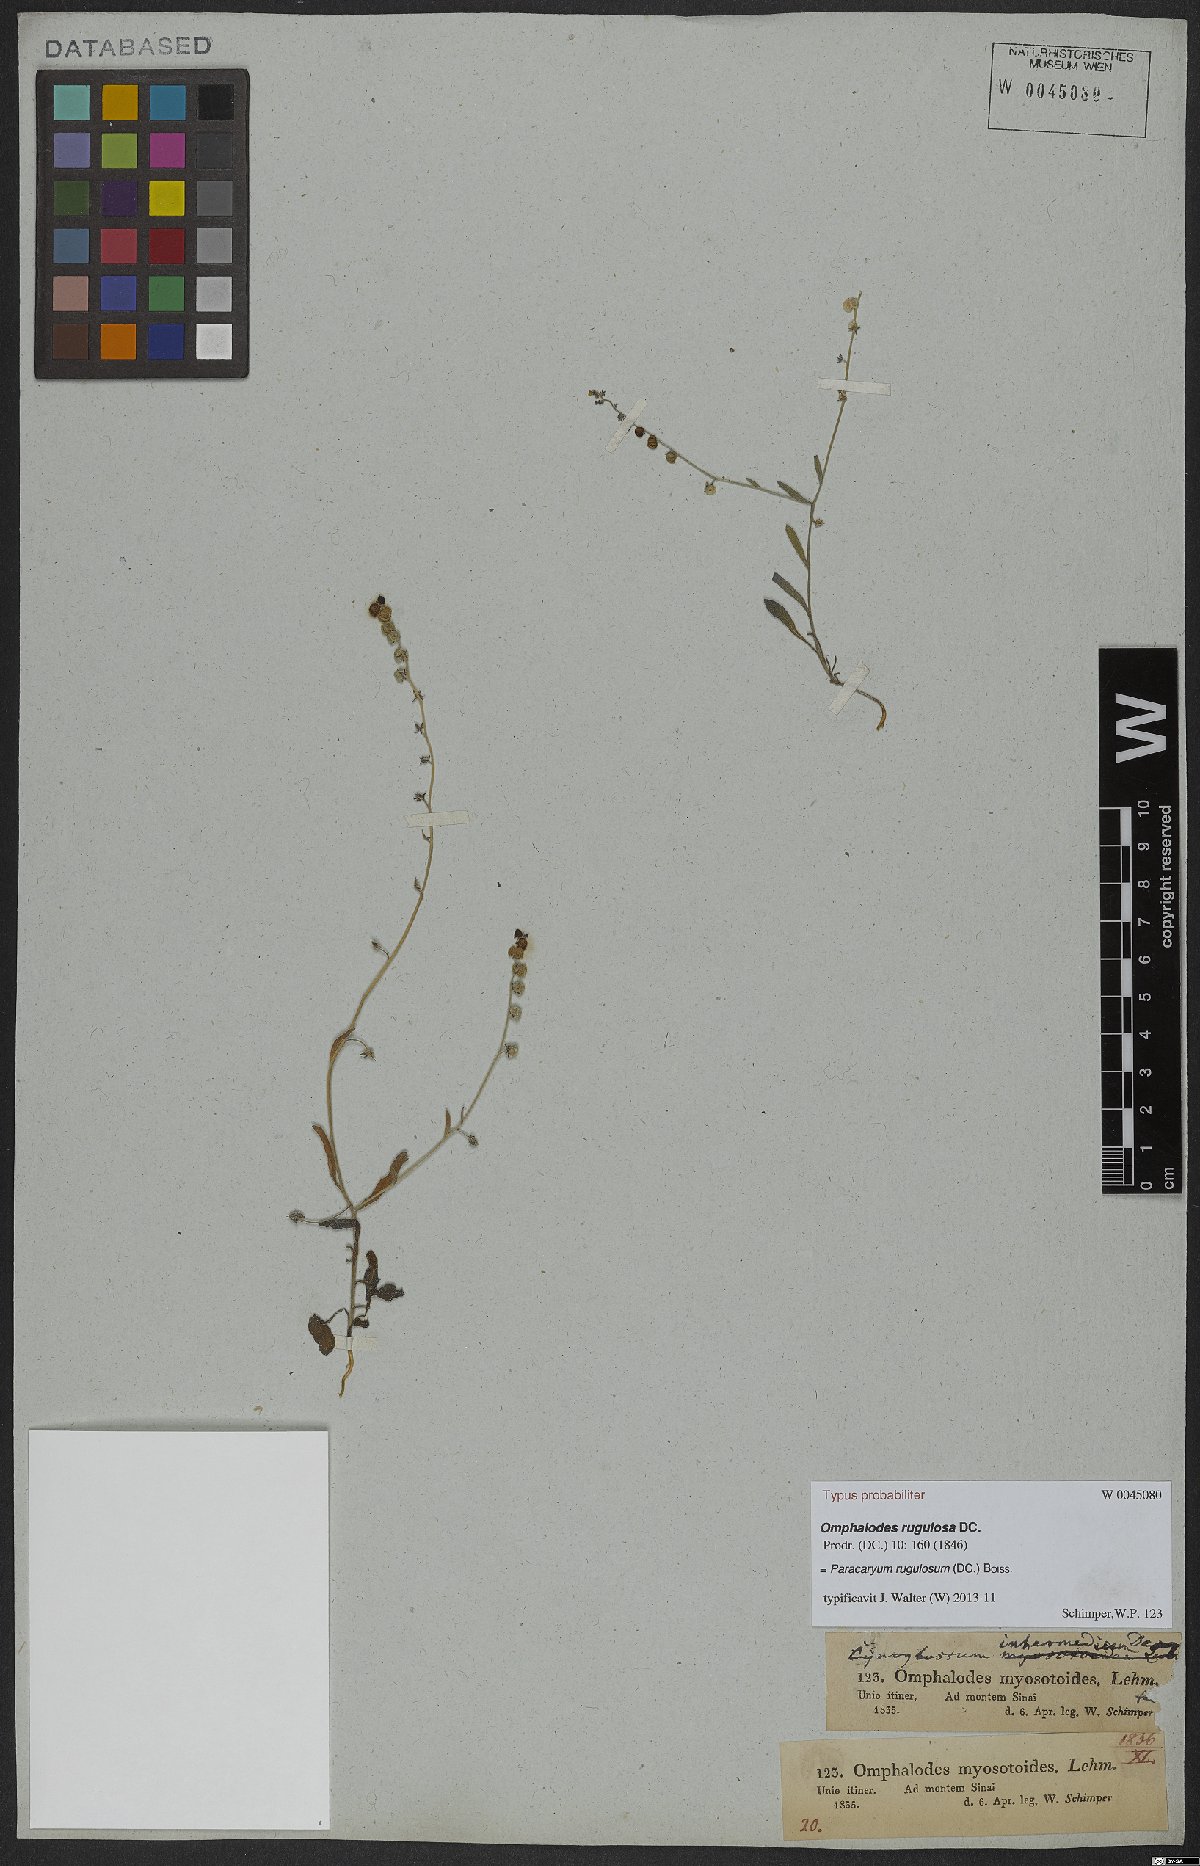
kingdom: Plantae
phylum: Tracheophyta
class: Magnoliopsida
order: Boraginales
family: Boraginaceae
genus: Paracaryum
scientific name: Paracaryum rugulosum
